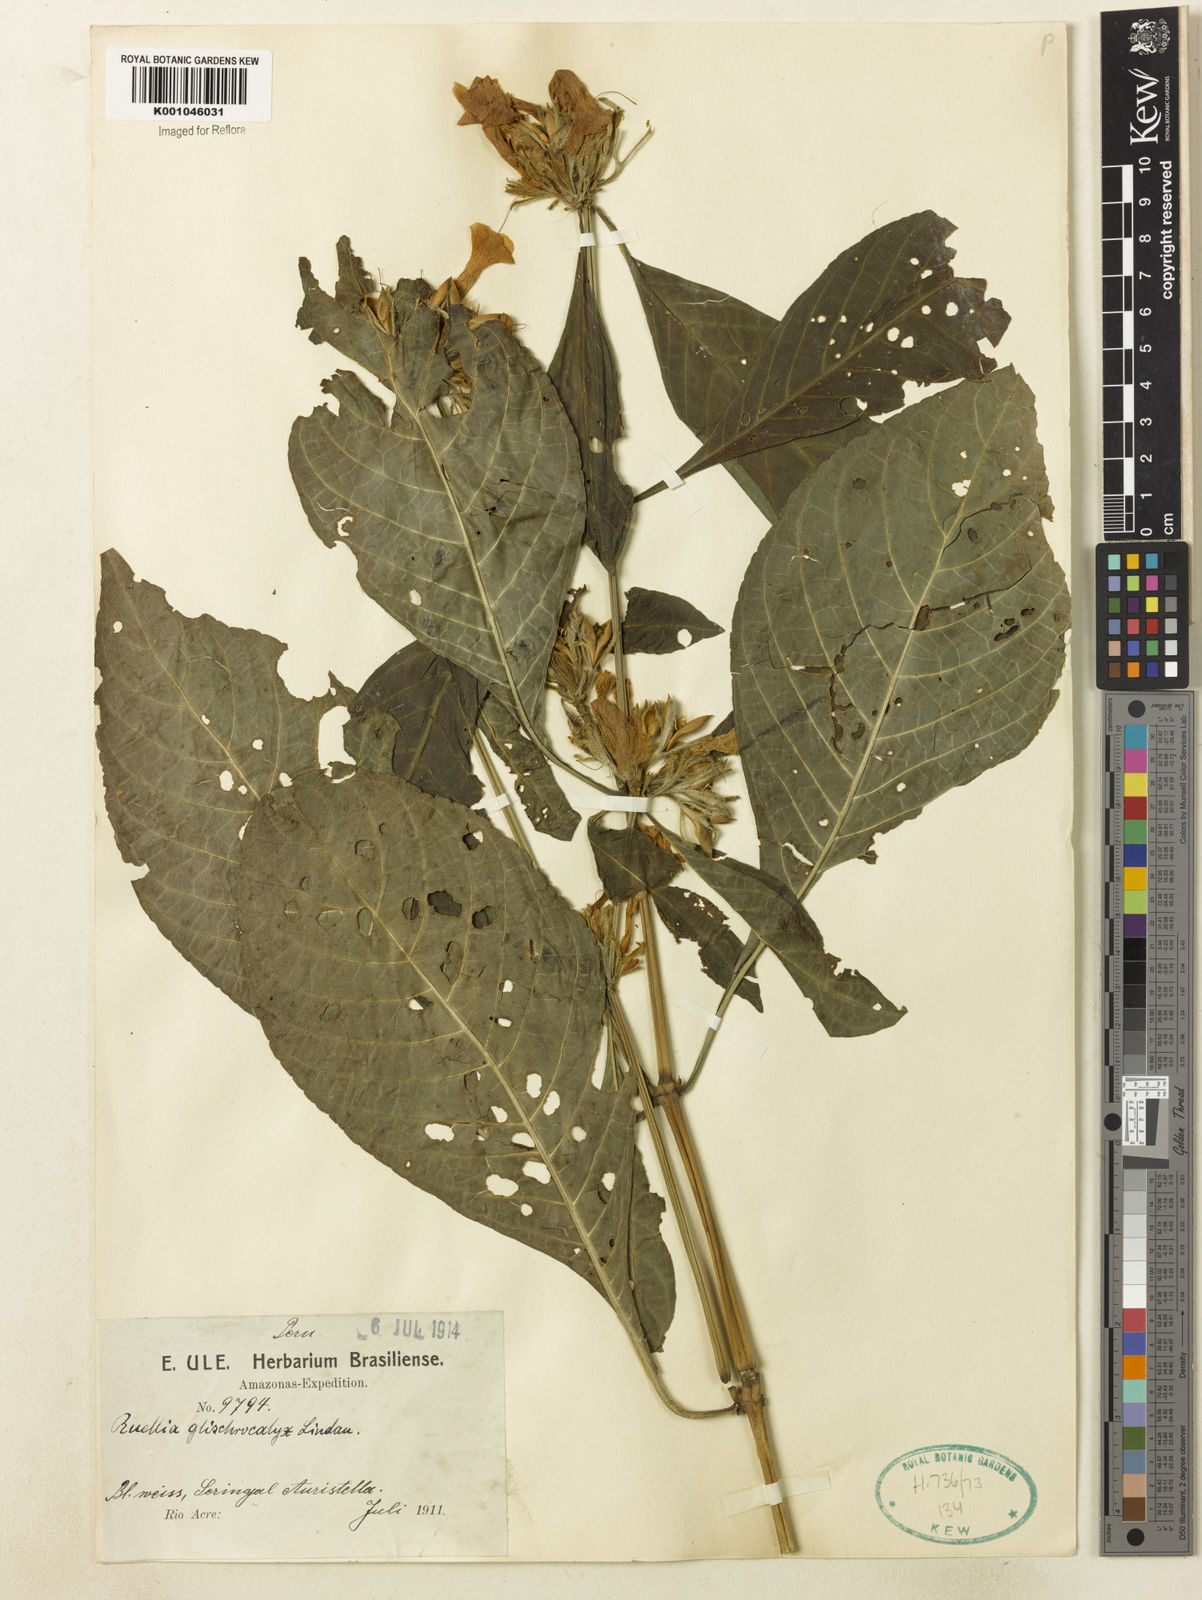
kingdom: Plantae
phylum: Tracheophyta
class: Magnoliopsida
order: Lamiales
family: Acanthaceae
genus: Ruellia
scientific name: Ruellia glischrocalyx
